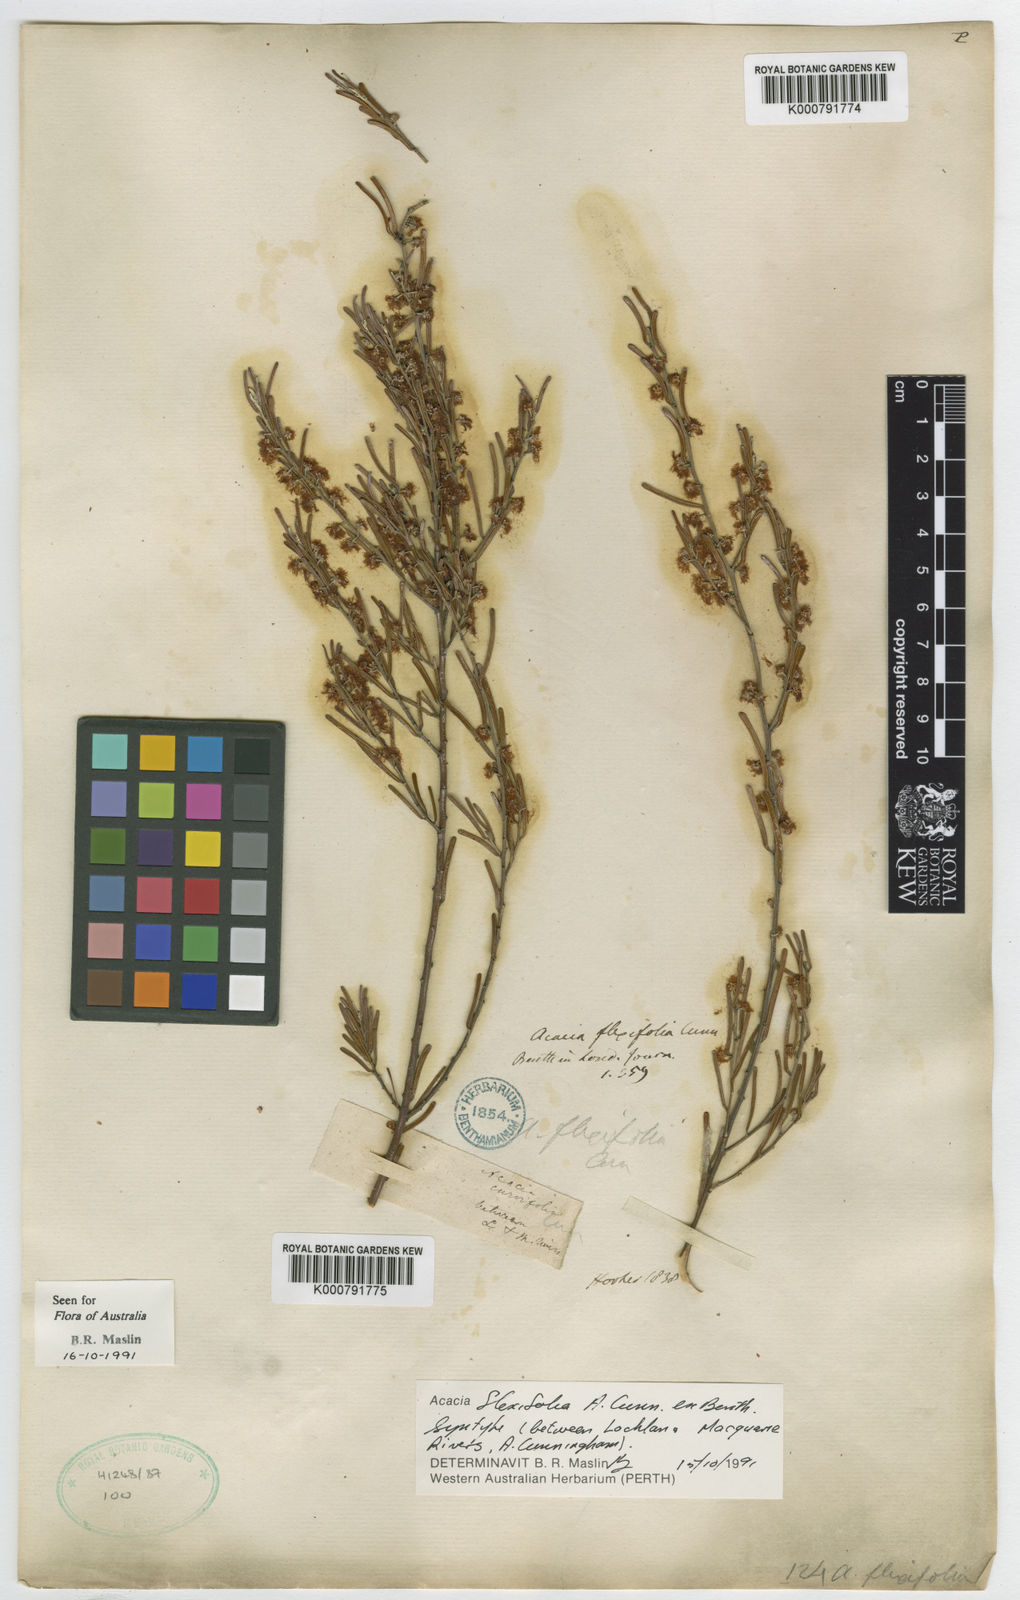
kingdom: Plantae
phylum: Tracheophyta
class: Magnoliopsida
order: Fabales
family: Fabaceae
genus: Acacia
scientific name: Acacia flexifolia
